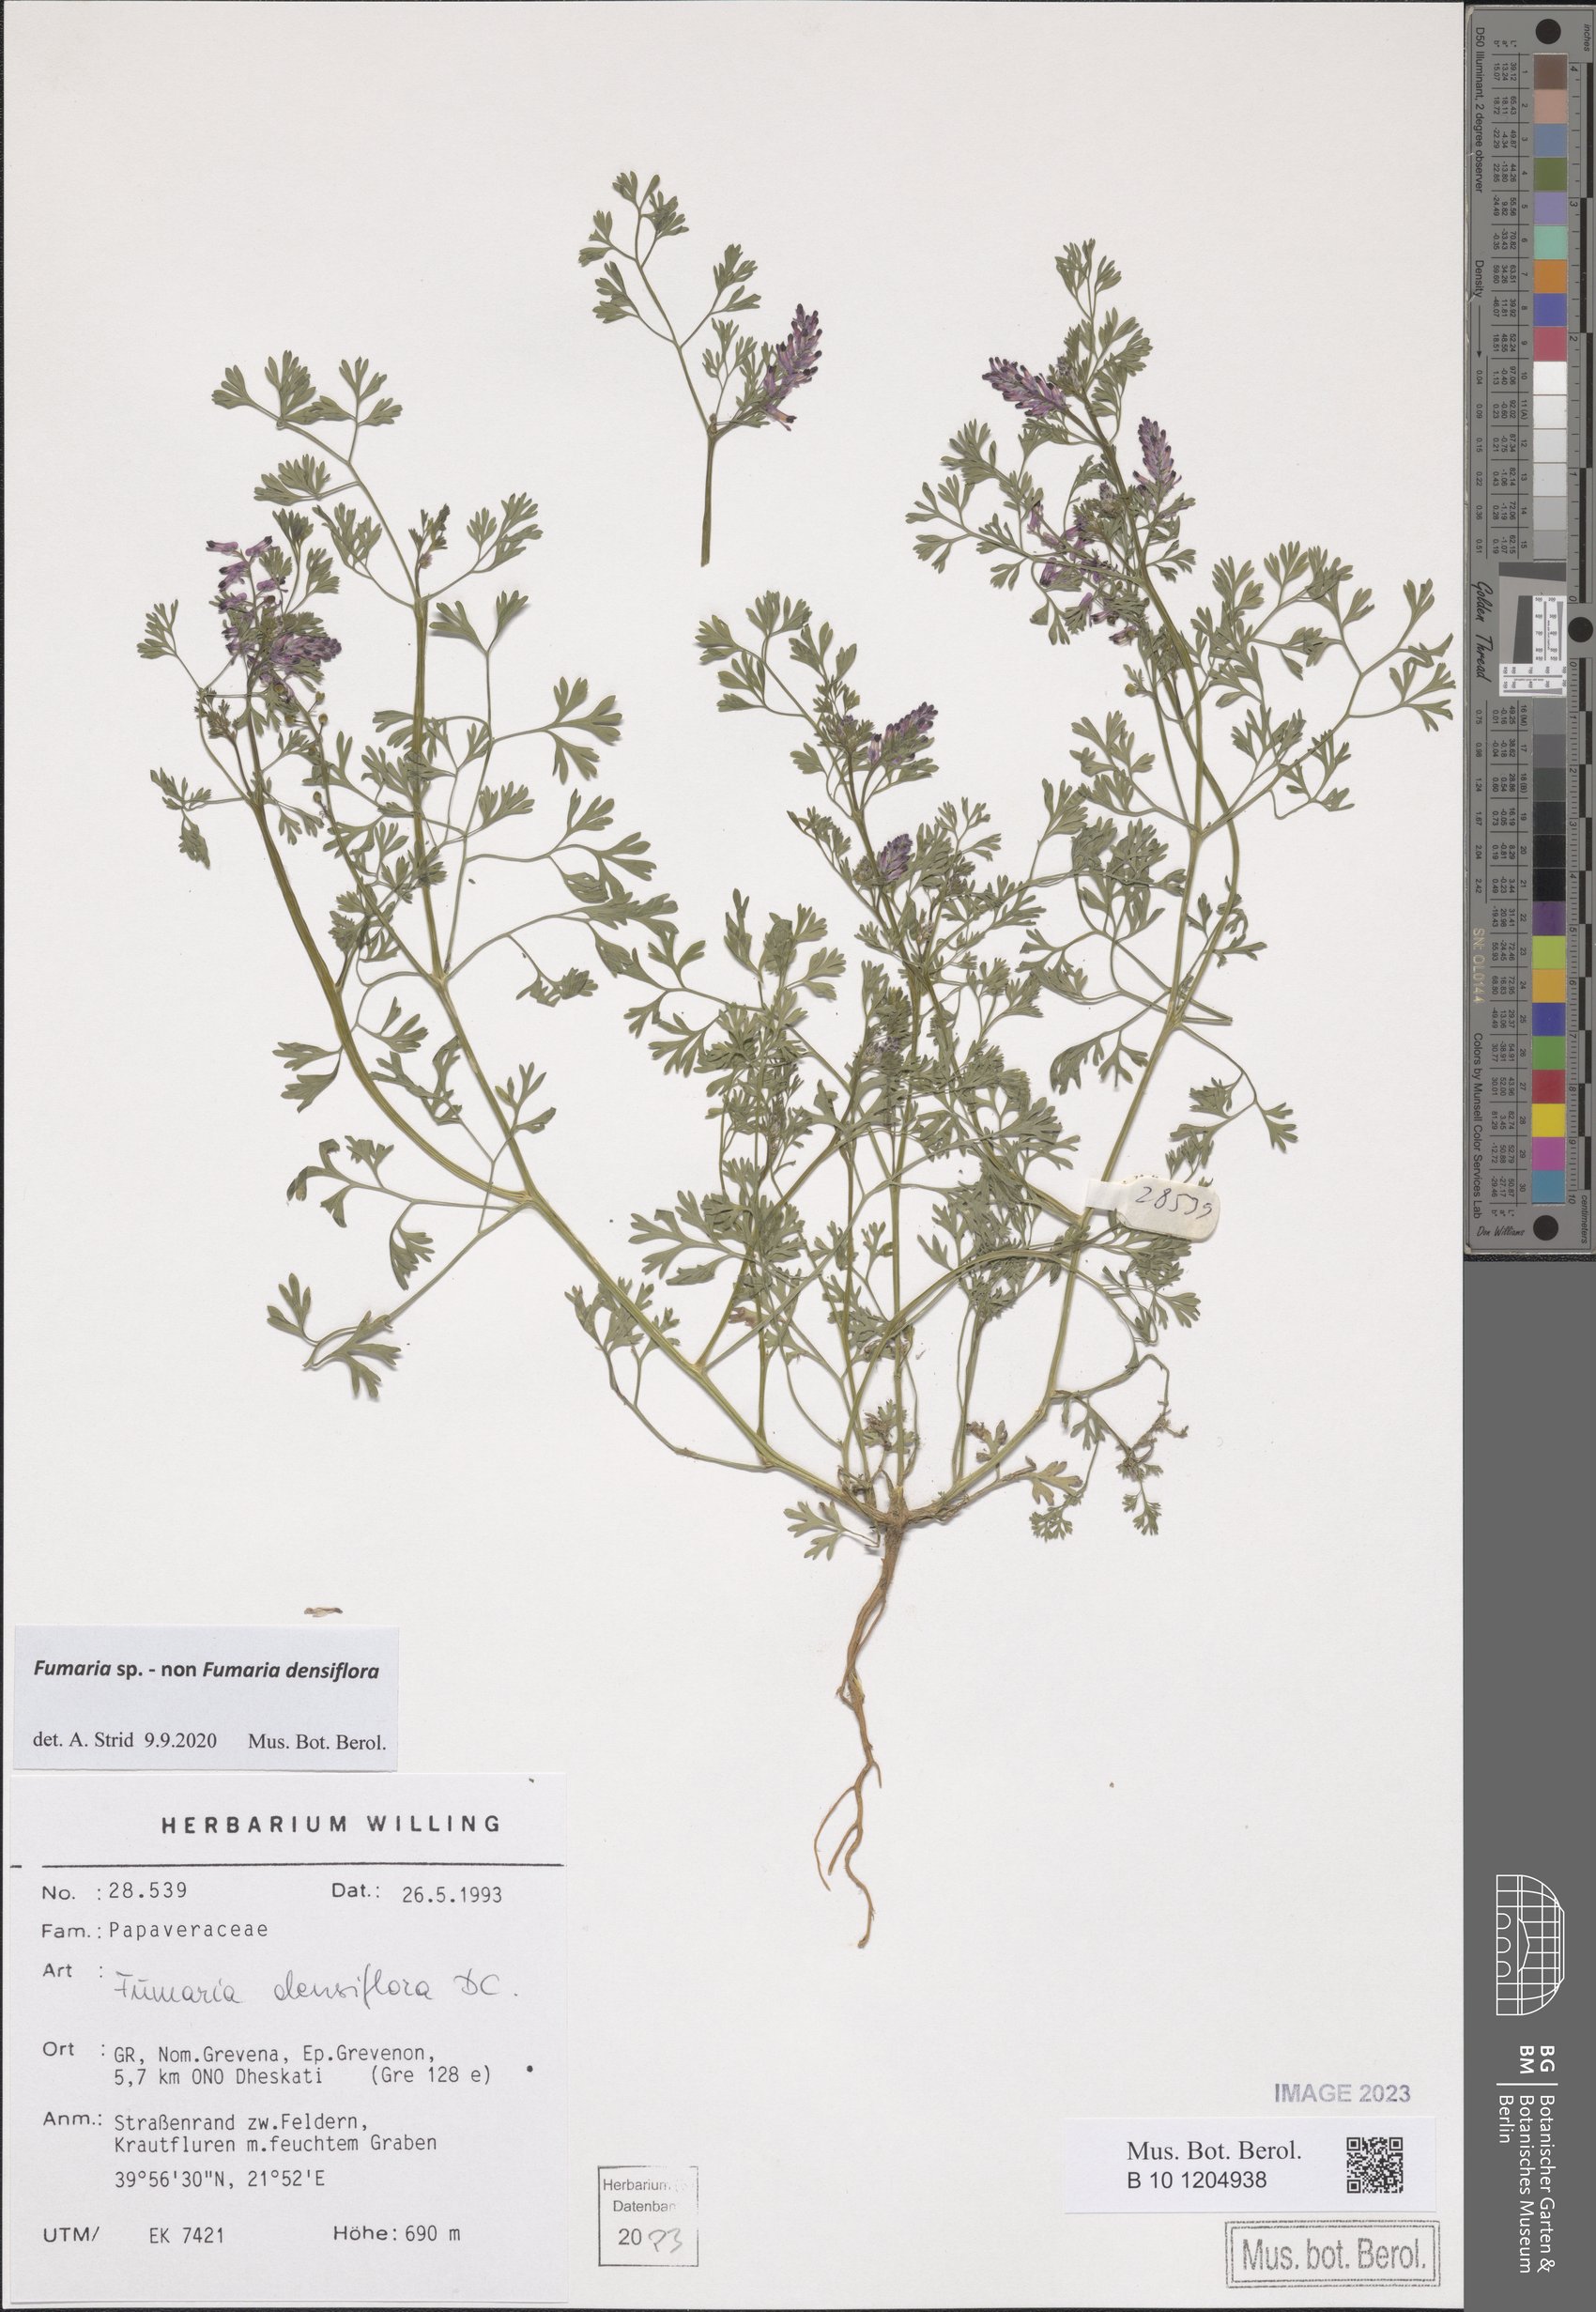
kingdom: Plantae
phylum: Tracheophyta
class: Magnoliopsida
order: Ranunculales
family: Papaveraceae
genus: Fumaria
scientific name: Fumaria
